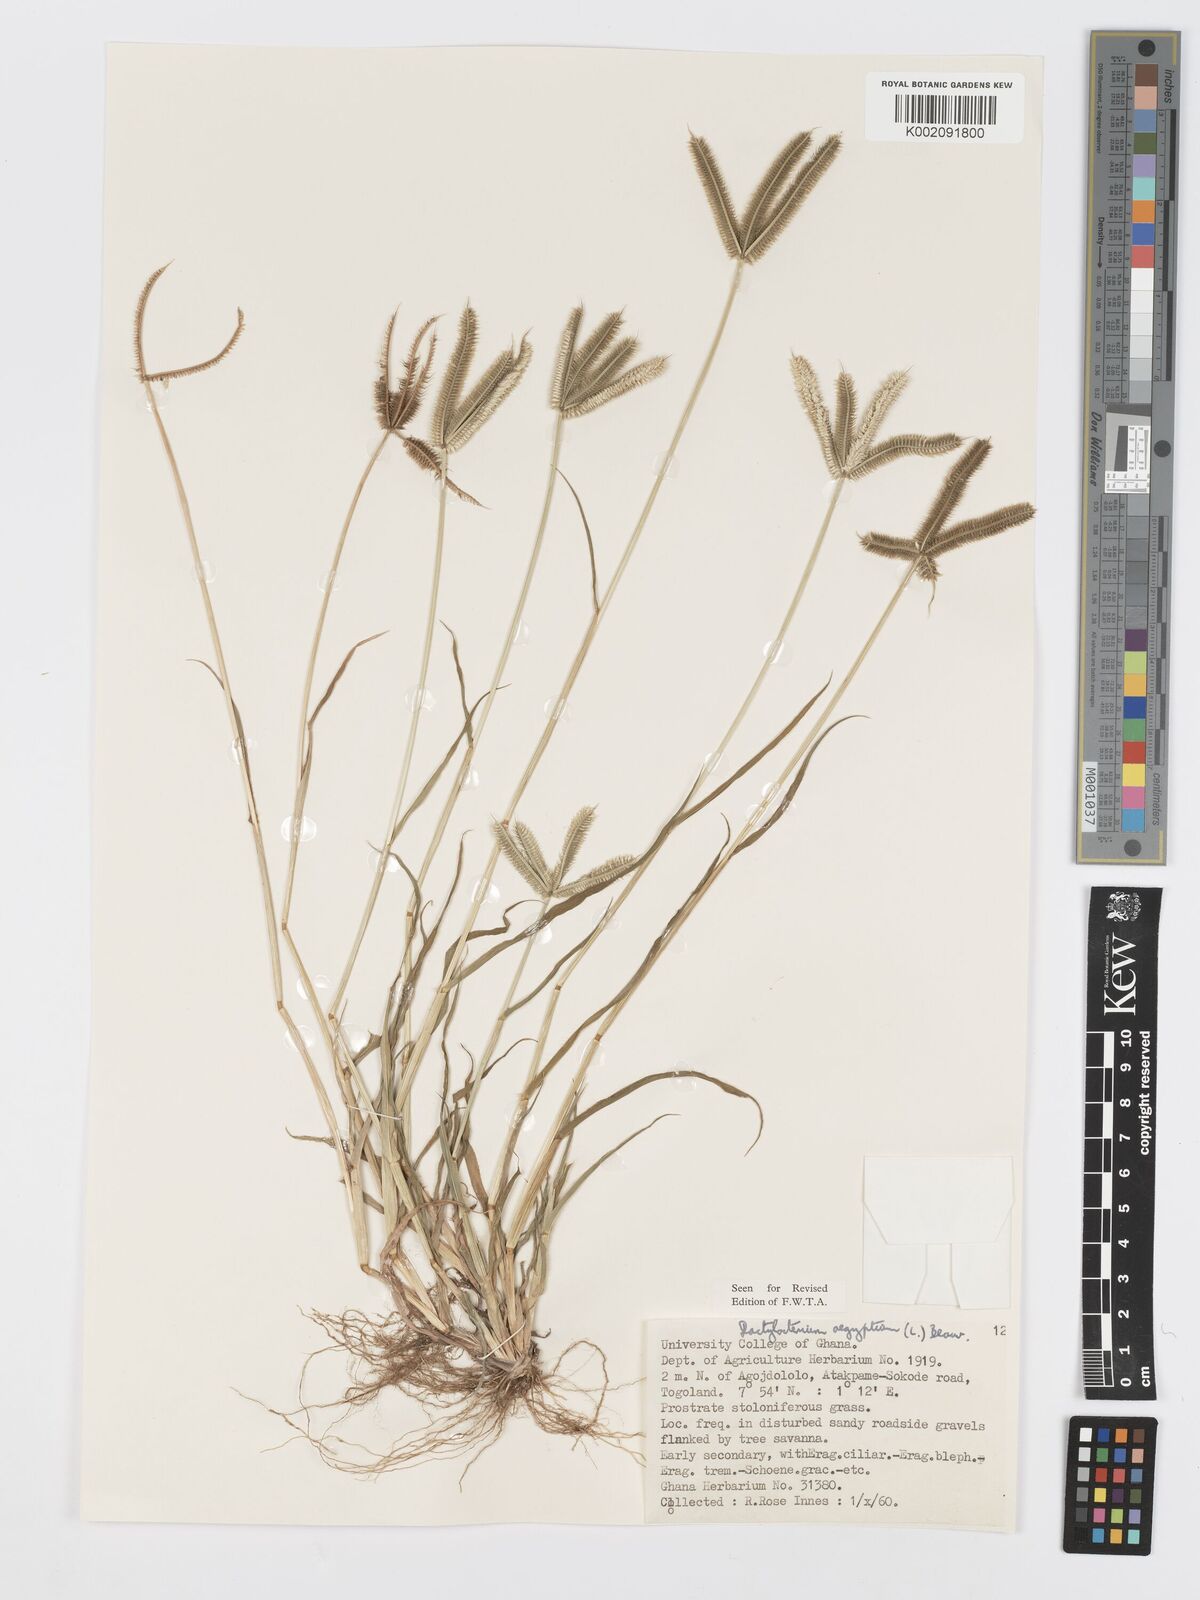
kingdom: Plantae
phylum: Tracheophyta
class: Liliopsida
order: Poales
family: Poaceae
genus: Dactyloctenium
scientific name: Dactyloctenium aegyptium
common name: Egyptian grass
